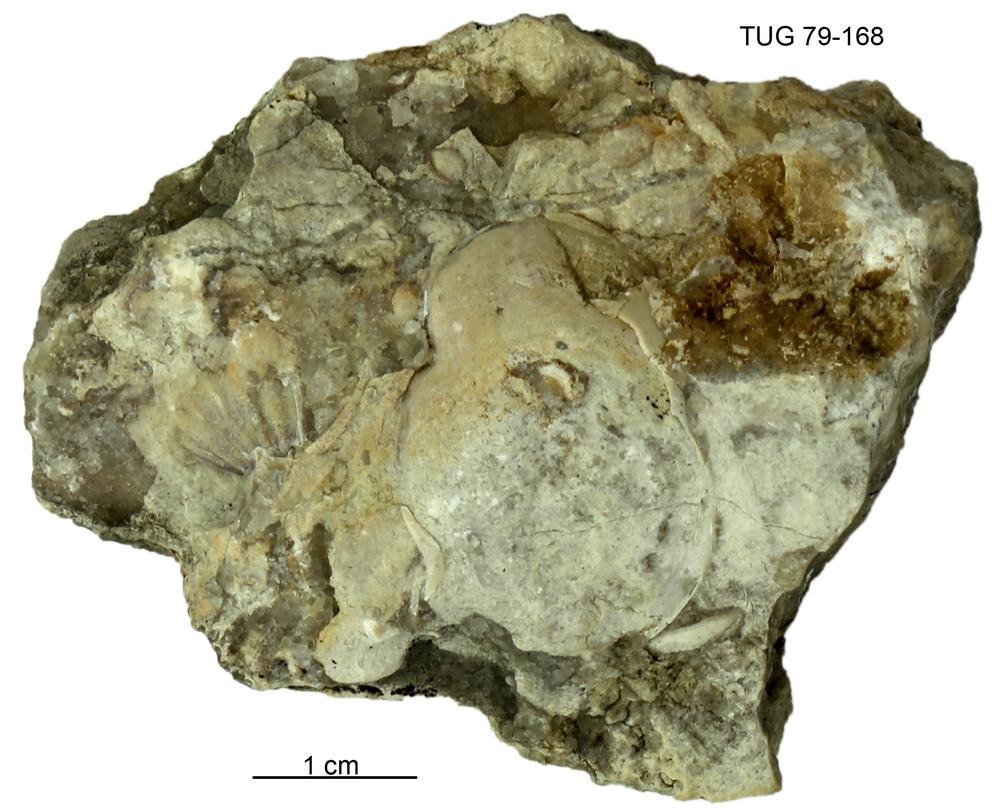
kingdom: Animalia
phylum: Brachiopoda
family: Strophomenidae
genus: Leptaena
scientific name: Leptaena
